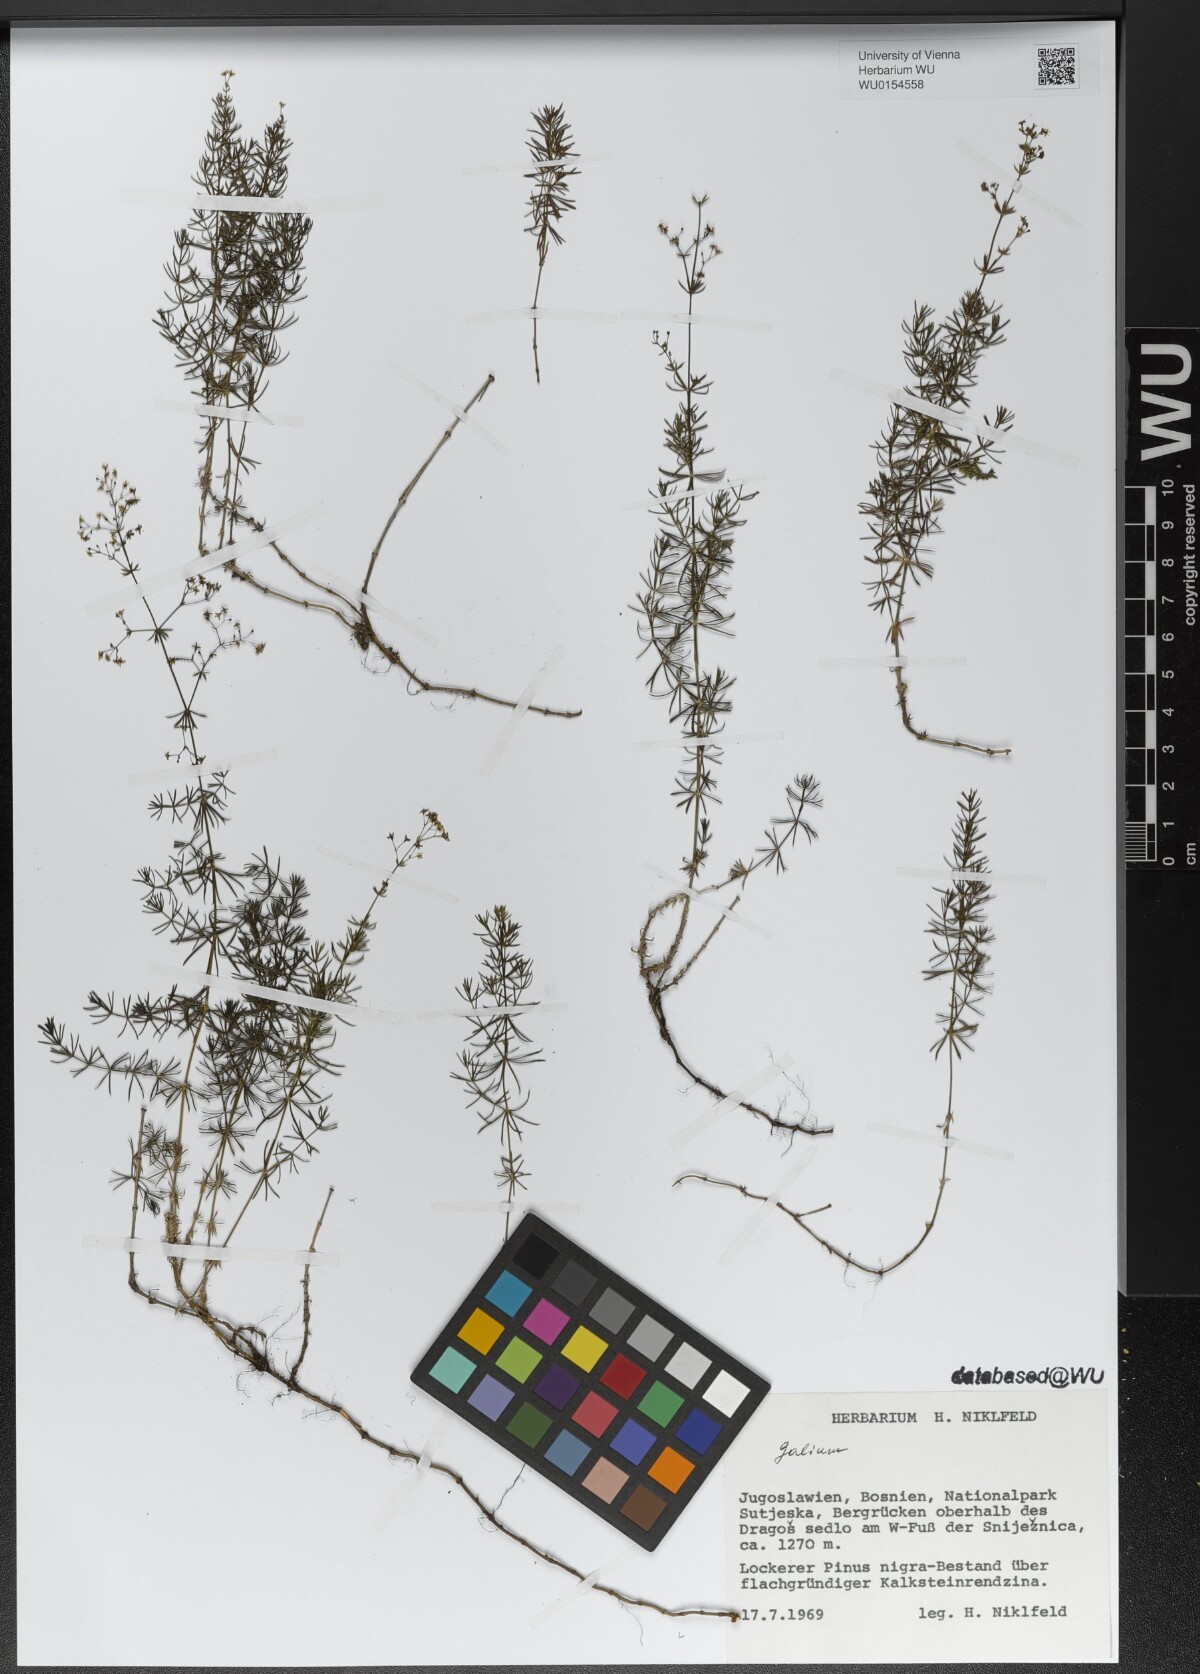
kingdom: Plantae
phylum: Tracheophyta
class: Magnoliopsida
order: Gentianales
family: Rubiaceae
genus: Galium
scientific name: Galium
